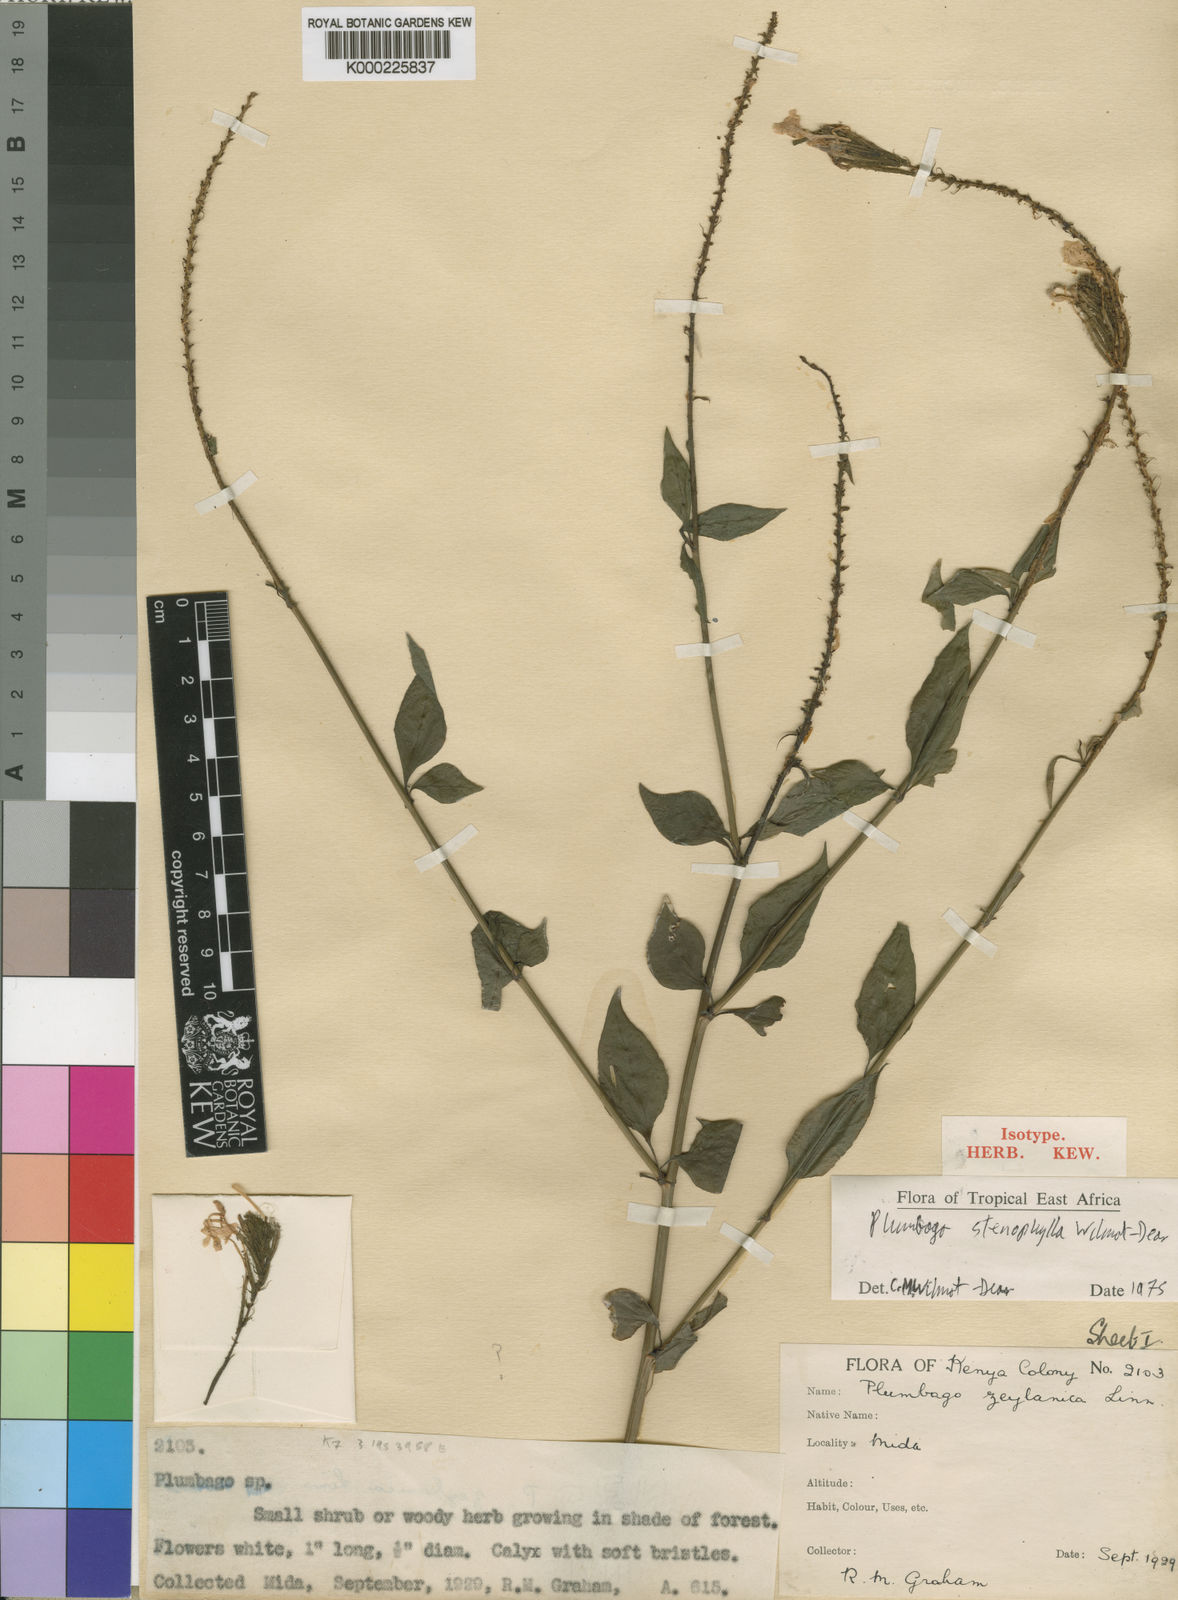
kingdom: Plantae
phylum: Tracheophyta
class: Magnoliopsida
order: Caryophyllales
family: Plumbaginaceae
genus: Plumbago
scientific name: Plumbago stenophylla
